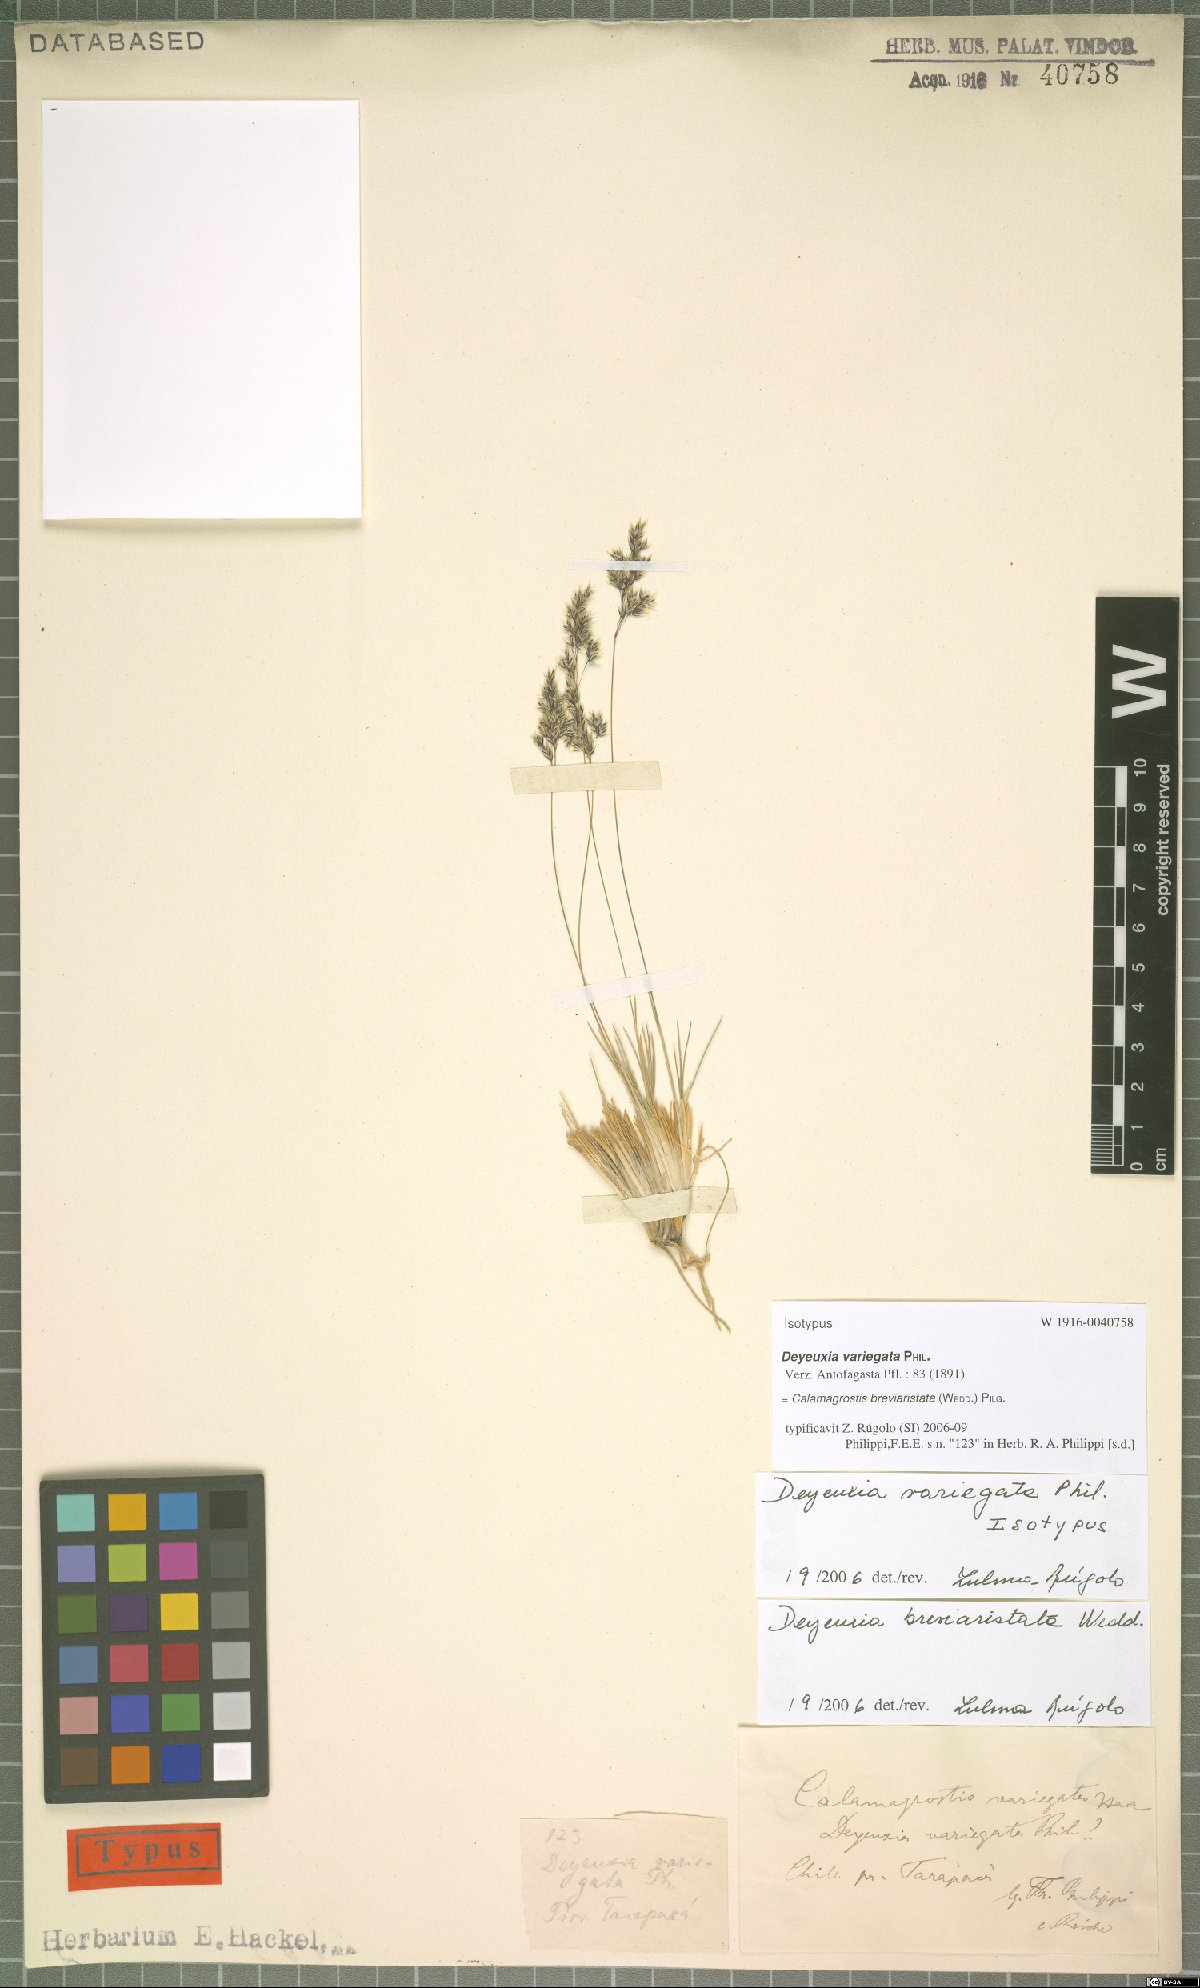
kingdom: Plantae
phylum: Tracheophyta
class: Liliopsida
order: Poales
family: Poaceae
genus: Cinnagrostis
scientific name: Cinnagrostis breviaristata
